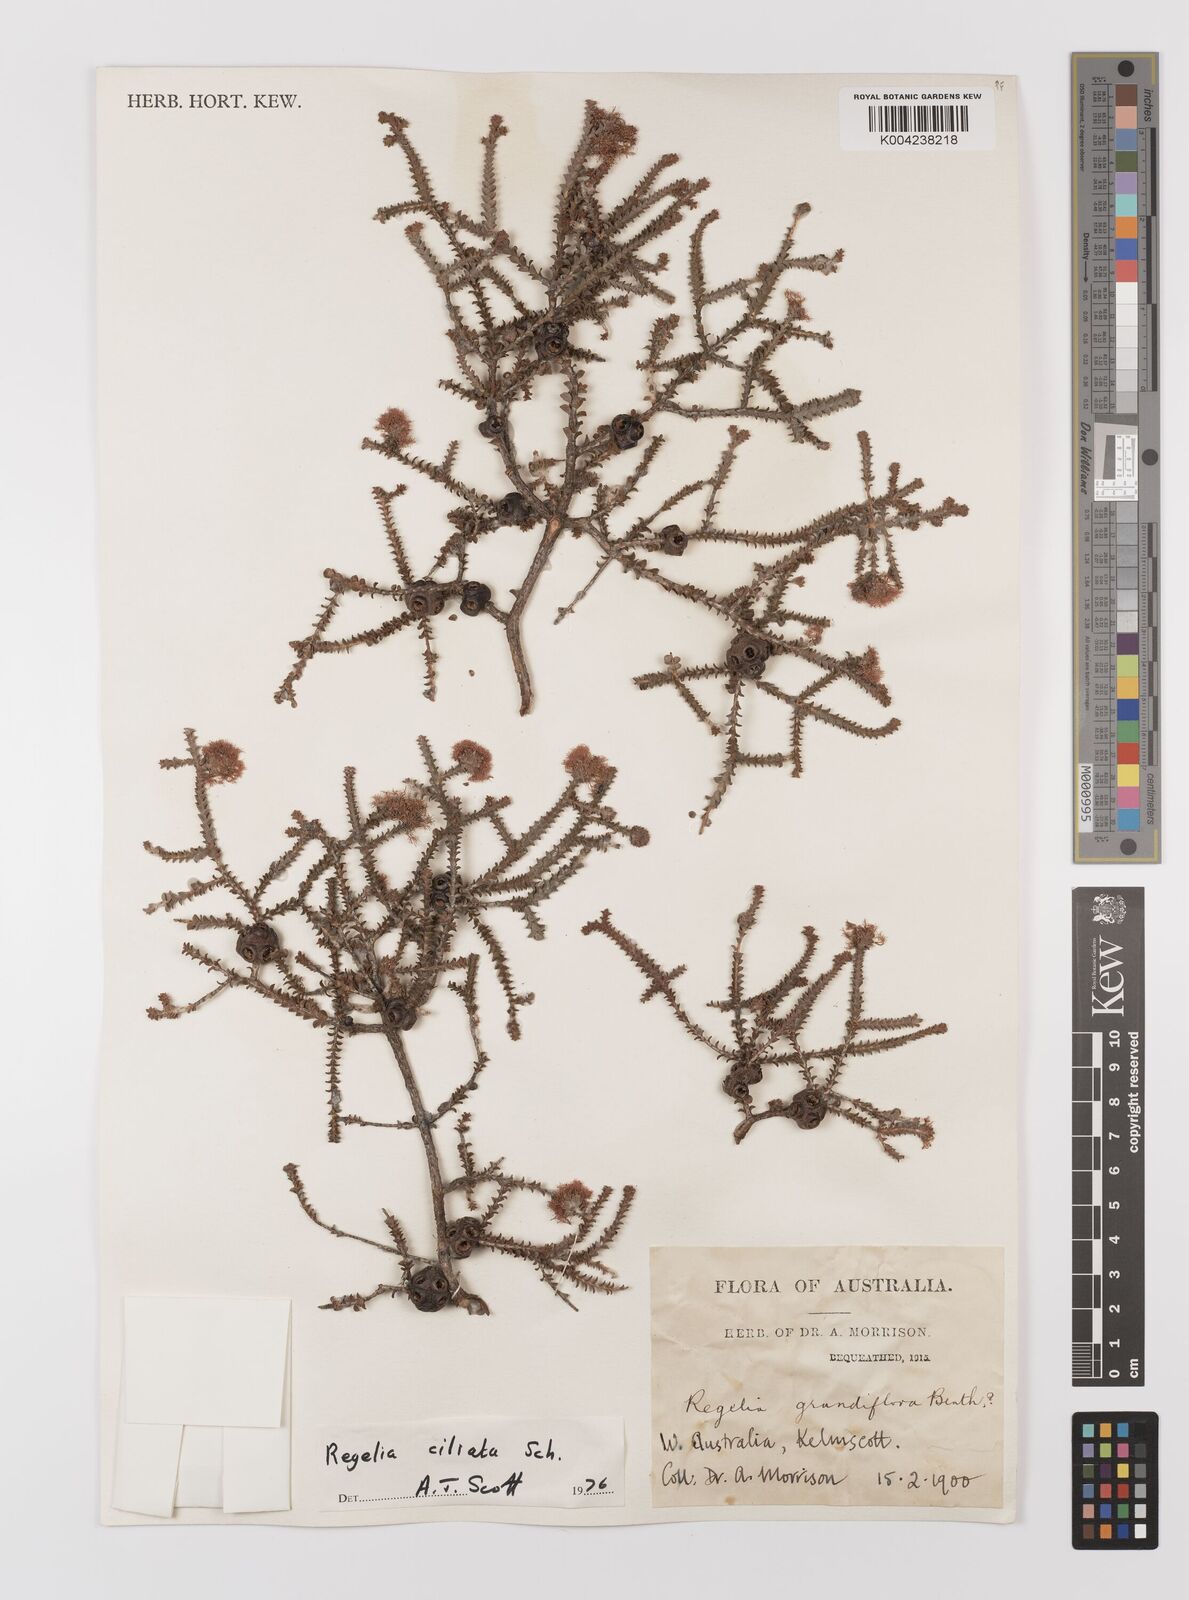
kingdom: Plantae
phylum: Tracheophyta
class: Magnoliopsida
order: Myrtales
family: Myrtaceae
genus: Melaleuca
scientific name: Melaleuca crossota
